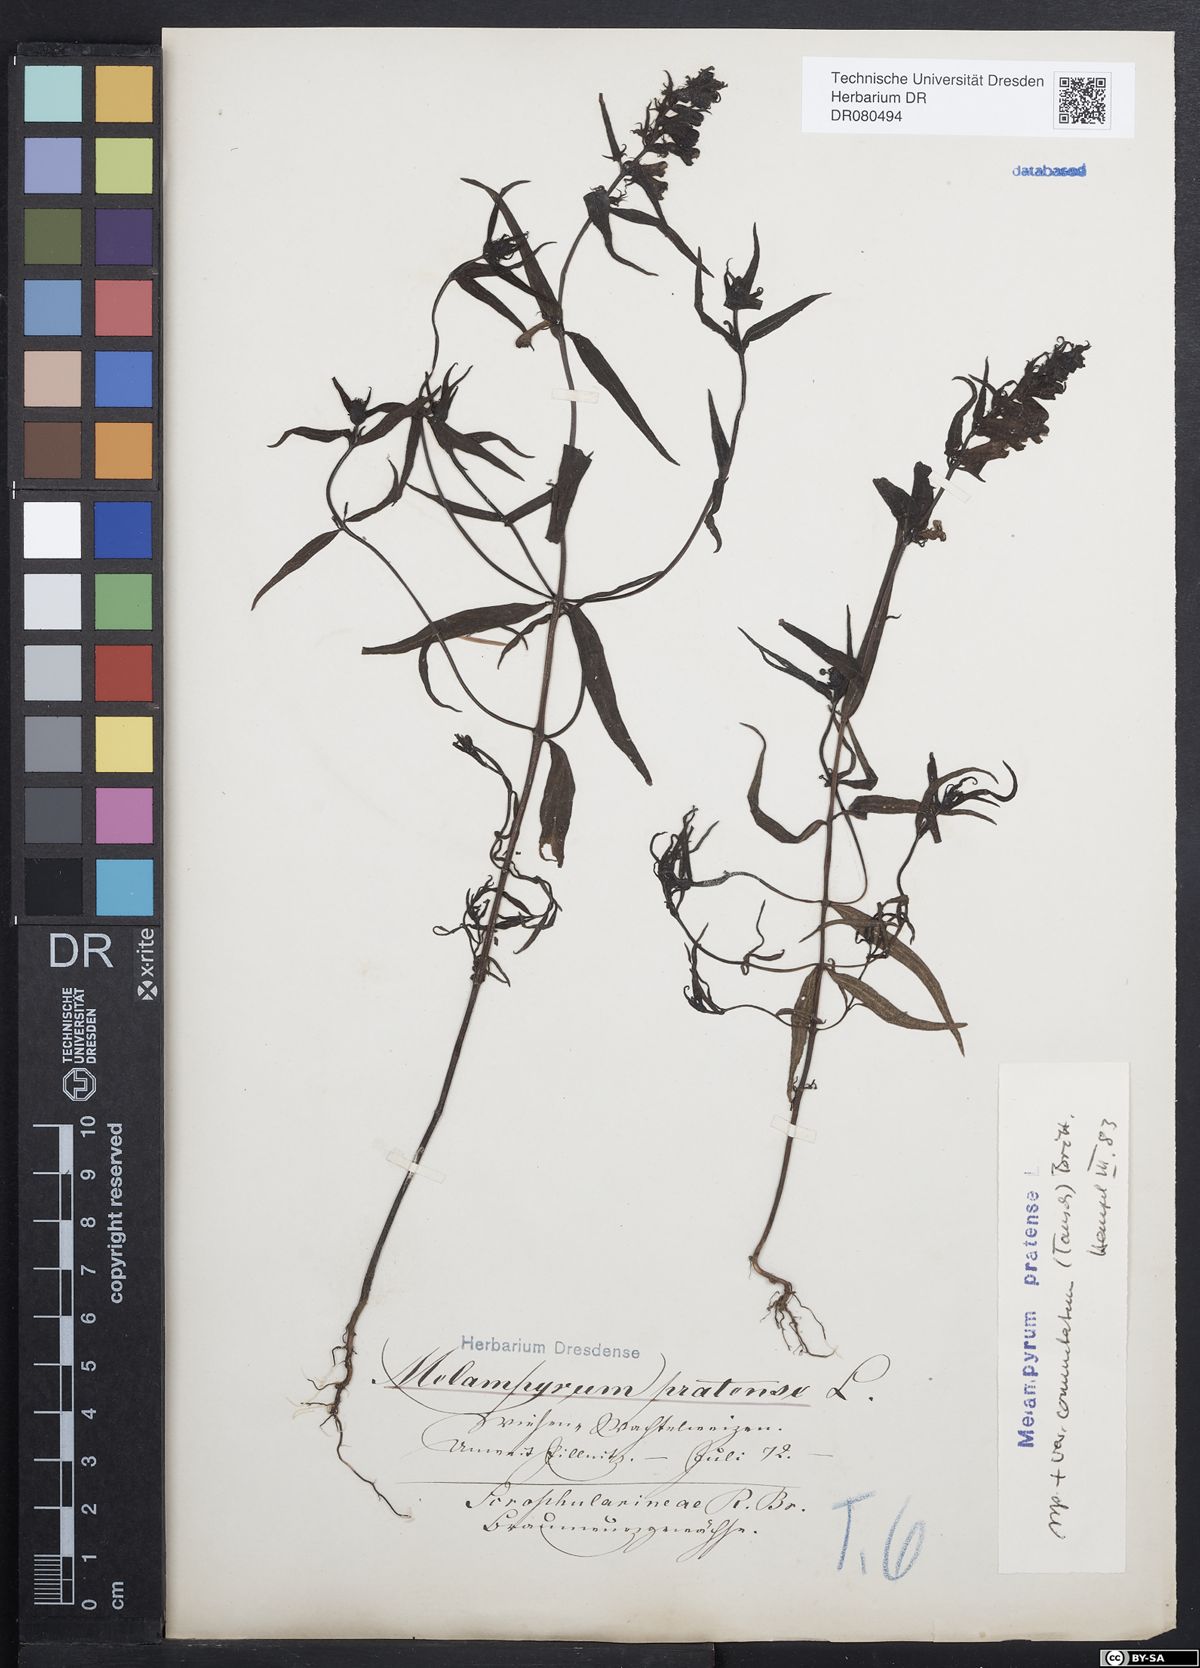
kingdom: Plantae
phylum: Tracheophyta
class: Magnoliopsida
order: Lamiales
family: Orobanchaceae
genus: Melampyrum
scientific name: Melampyrum pratense
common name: Common cow-wheat
